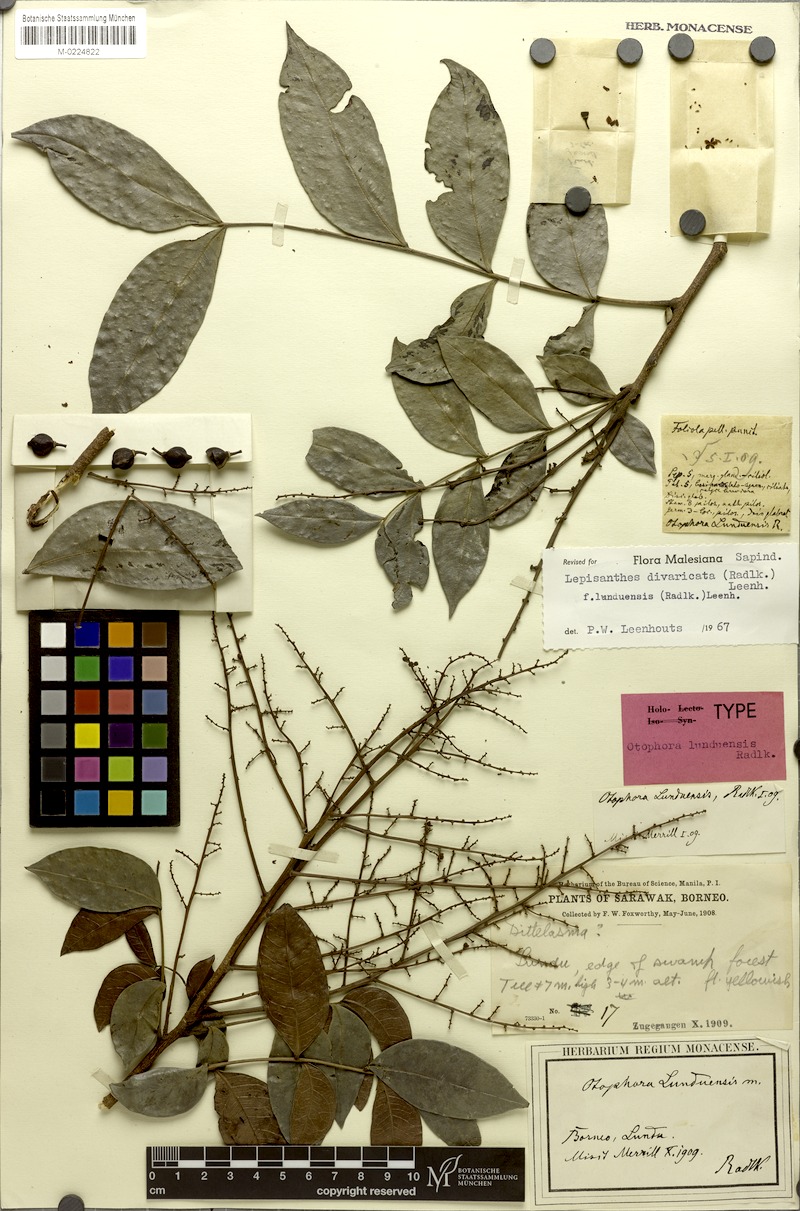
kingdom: Plantae
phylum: Tracheophyta
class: Magnoliopsida
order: Sapindales
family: Sapindaceae
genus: Lepisanthes
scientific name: Lepisanthes divaricata
